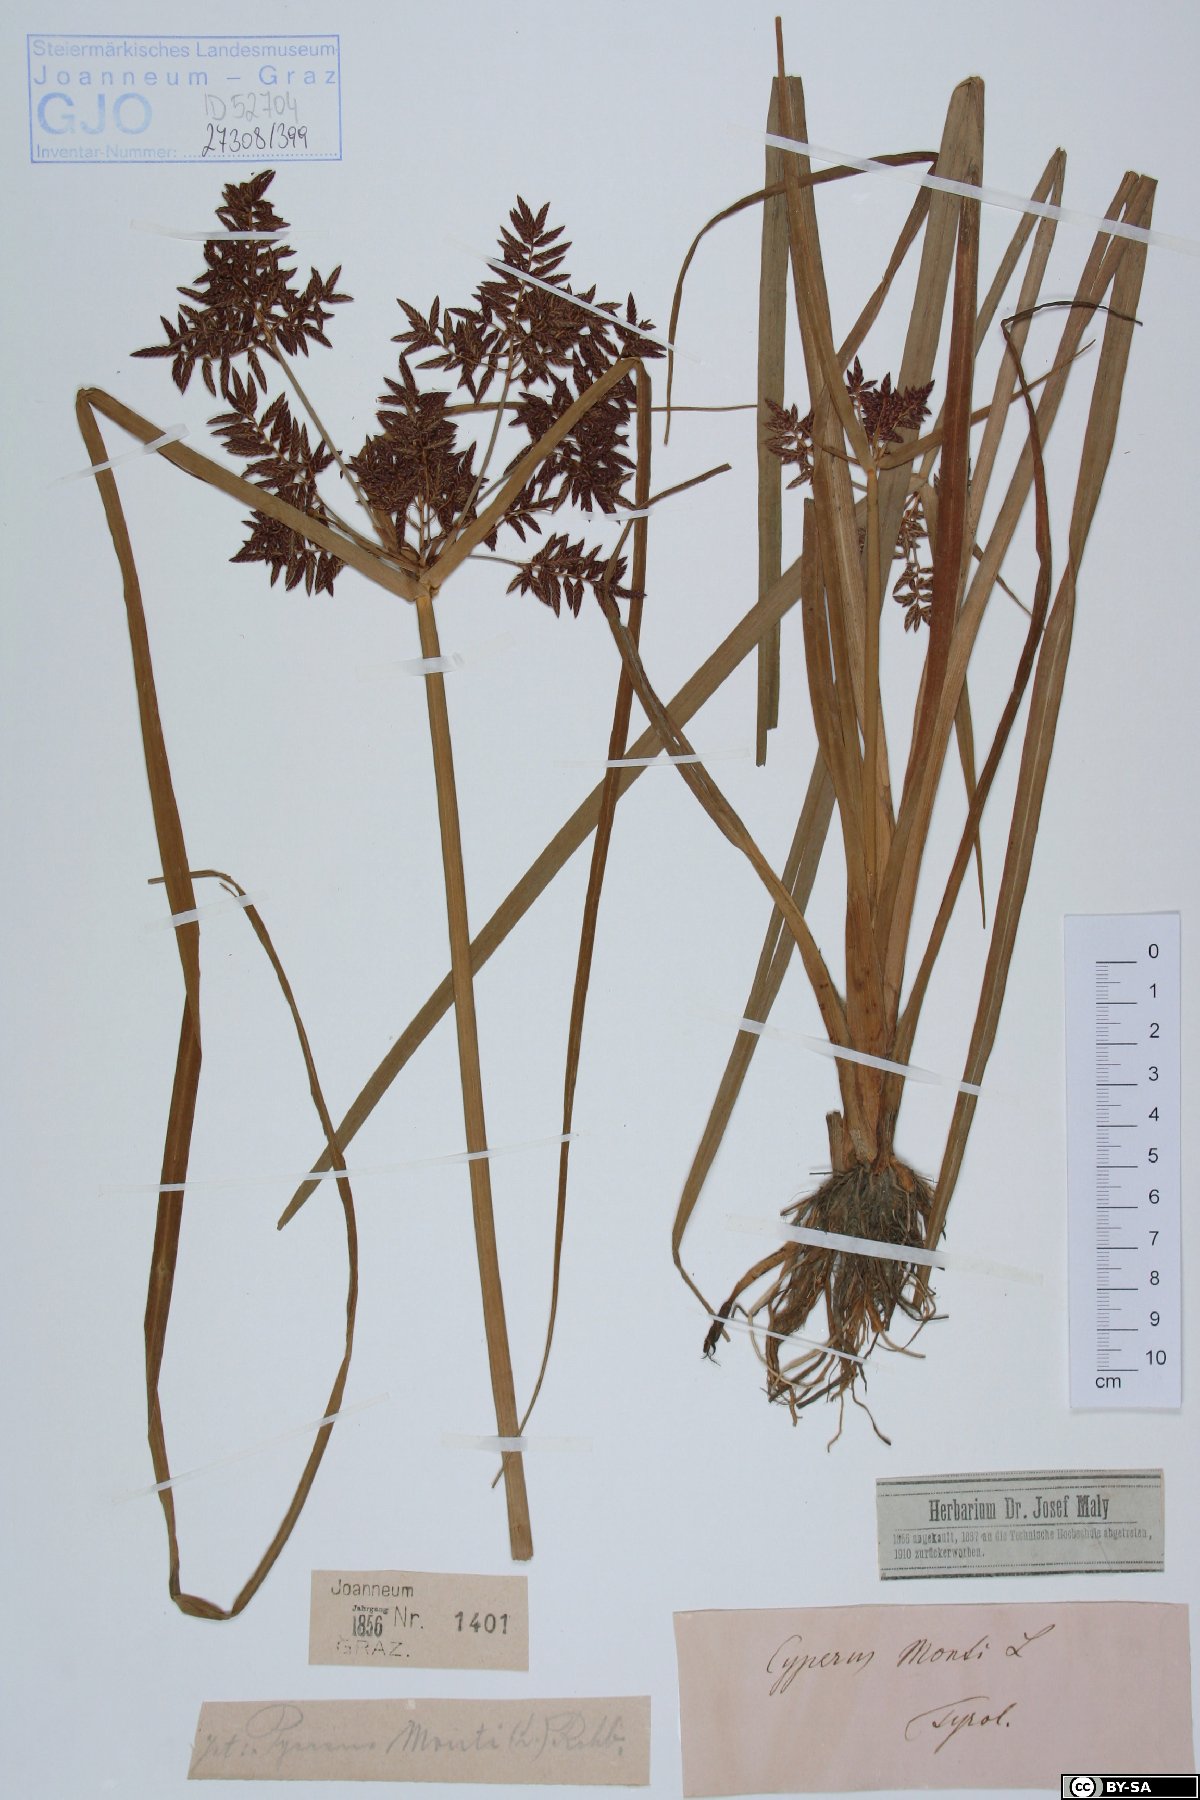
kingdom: Plantae
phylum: Tracheophyta
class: Liliopsida
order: Poales
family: Cyperaceae
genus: Cyperus
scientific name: Cyperus serotinus
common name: Tidalmarsh flatsedge
